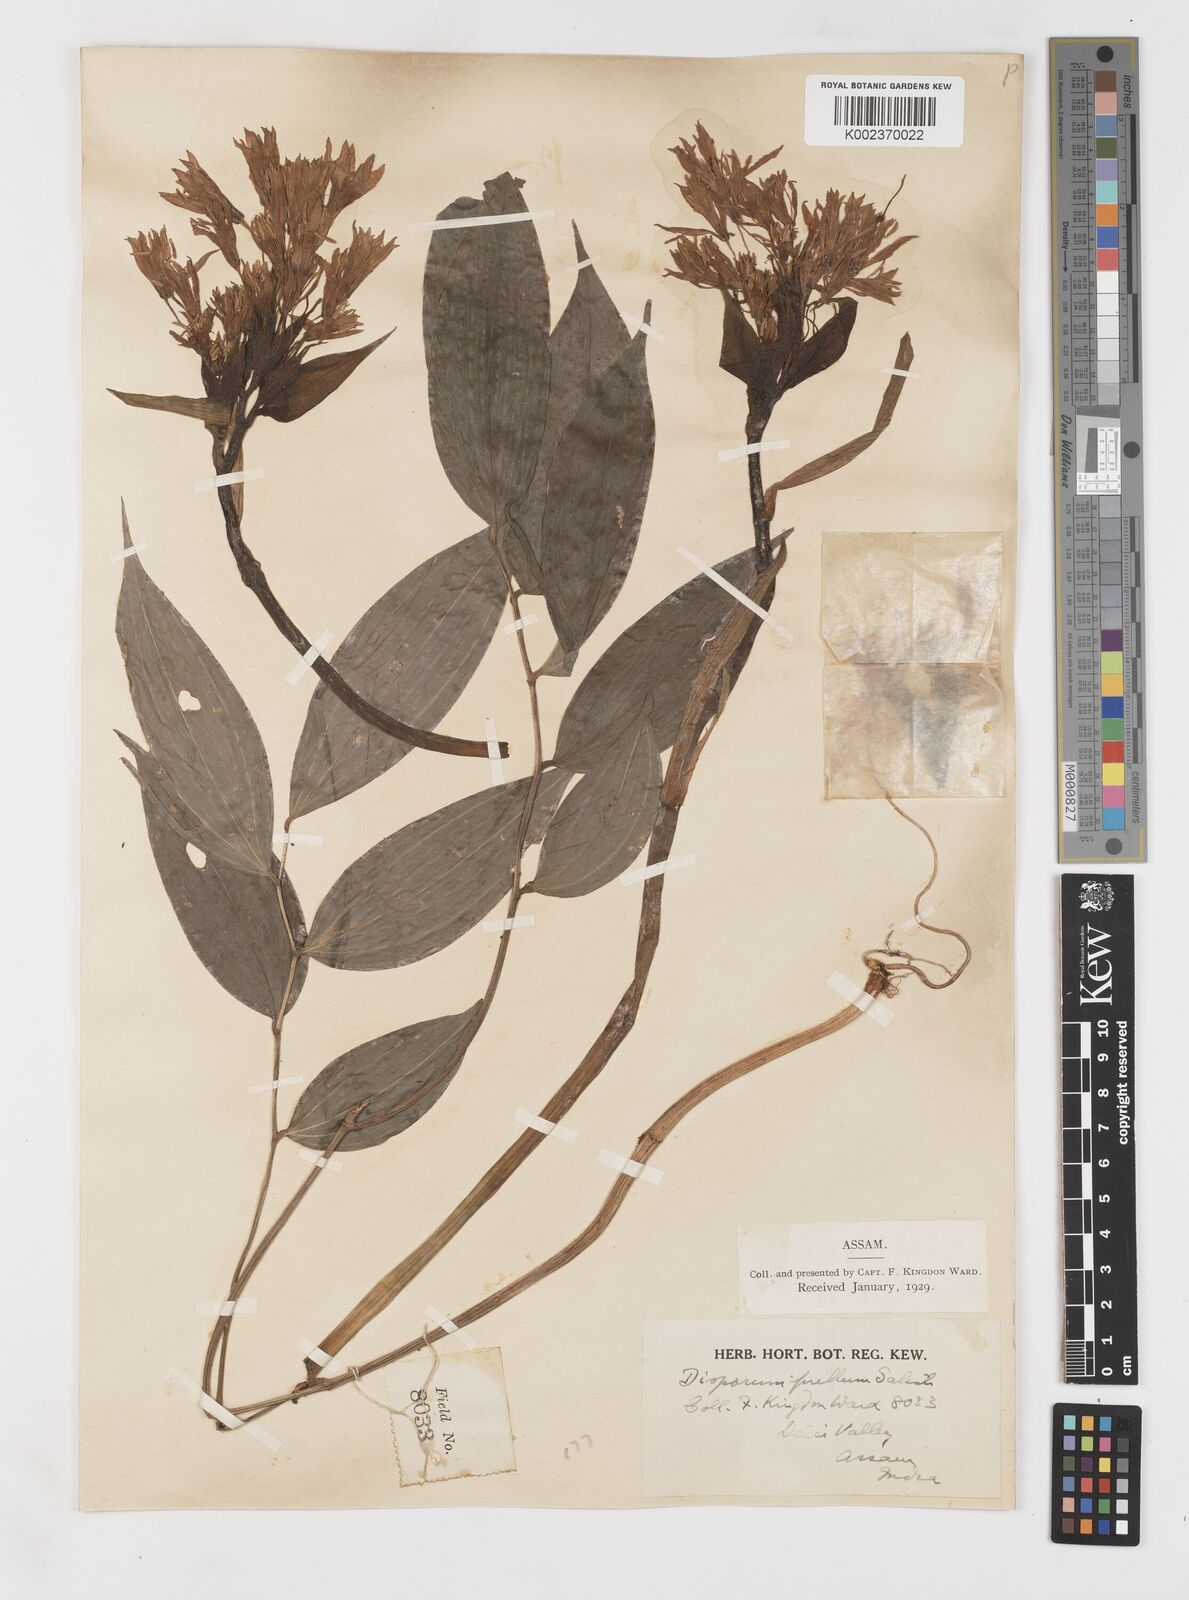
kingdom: Plantae
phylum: Tracheophyta
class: Liliopsida
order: Liliales
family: Colchicaceae
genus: Disporum
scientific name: Disporum cantoniense
